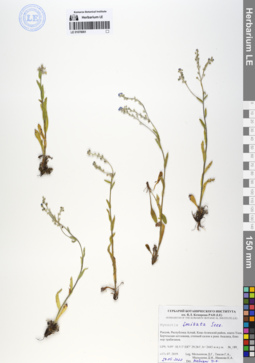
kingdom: Plantae
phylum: Tracheophyta
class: Magnoliopsida
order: Boraginales
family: Boraginaceae
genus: Myosotis
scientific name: Myosotis imitata
